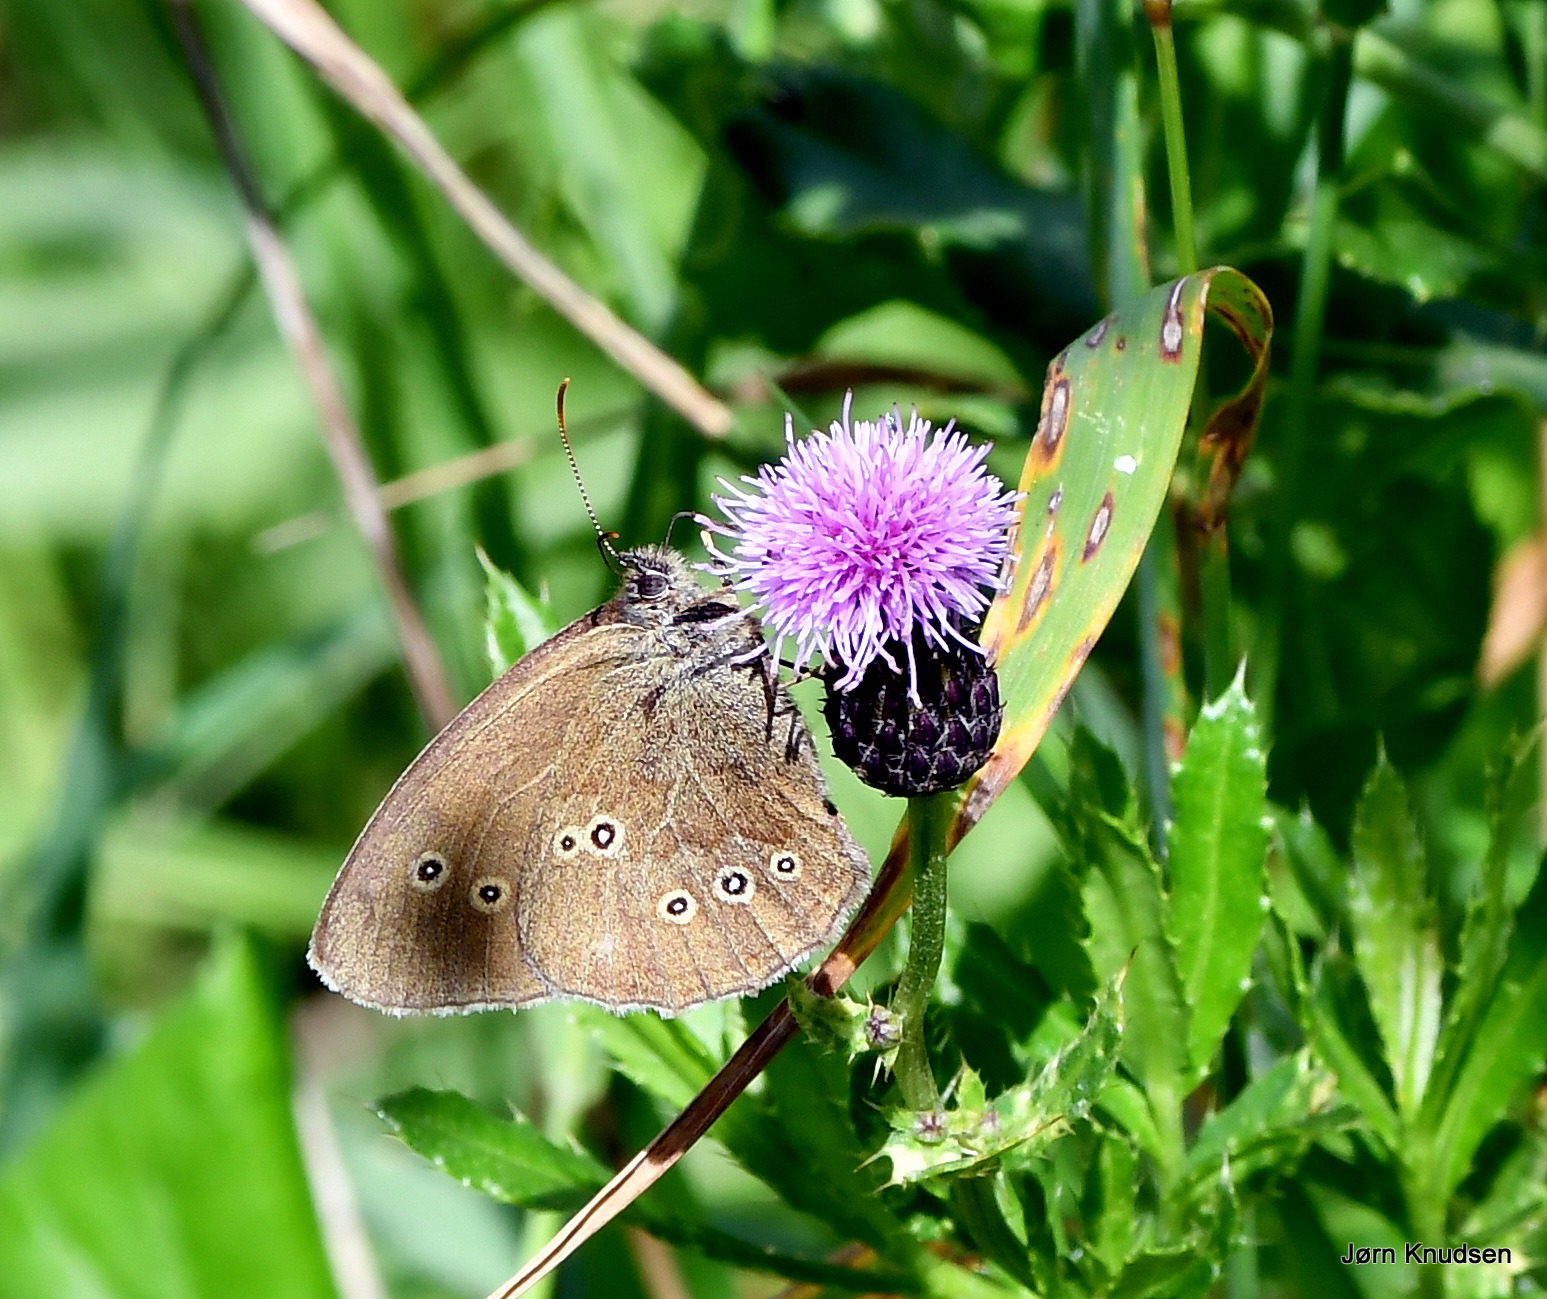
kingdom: Animalia
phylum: Arthropoda
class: Insecta
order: Lepidoptera
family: Nymphalidae
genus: Aphantopus
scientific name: Aphantopus hyperantus
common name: Engrandøje
